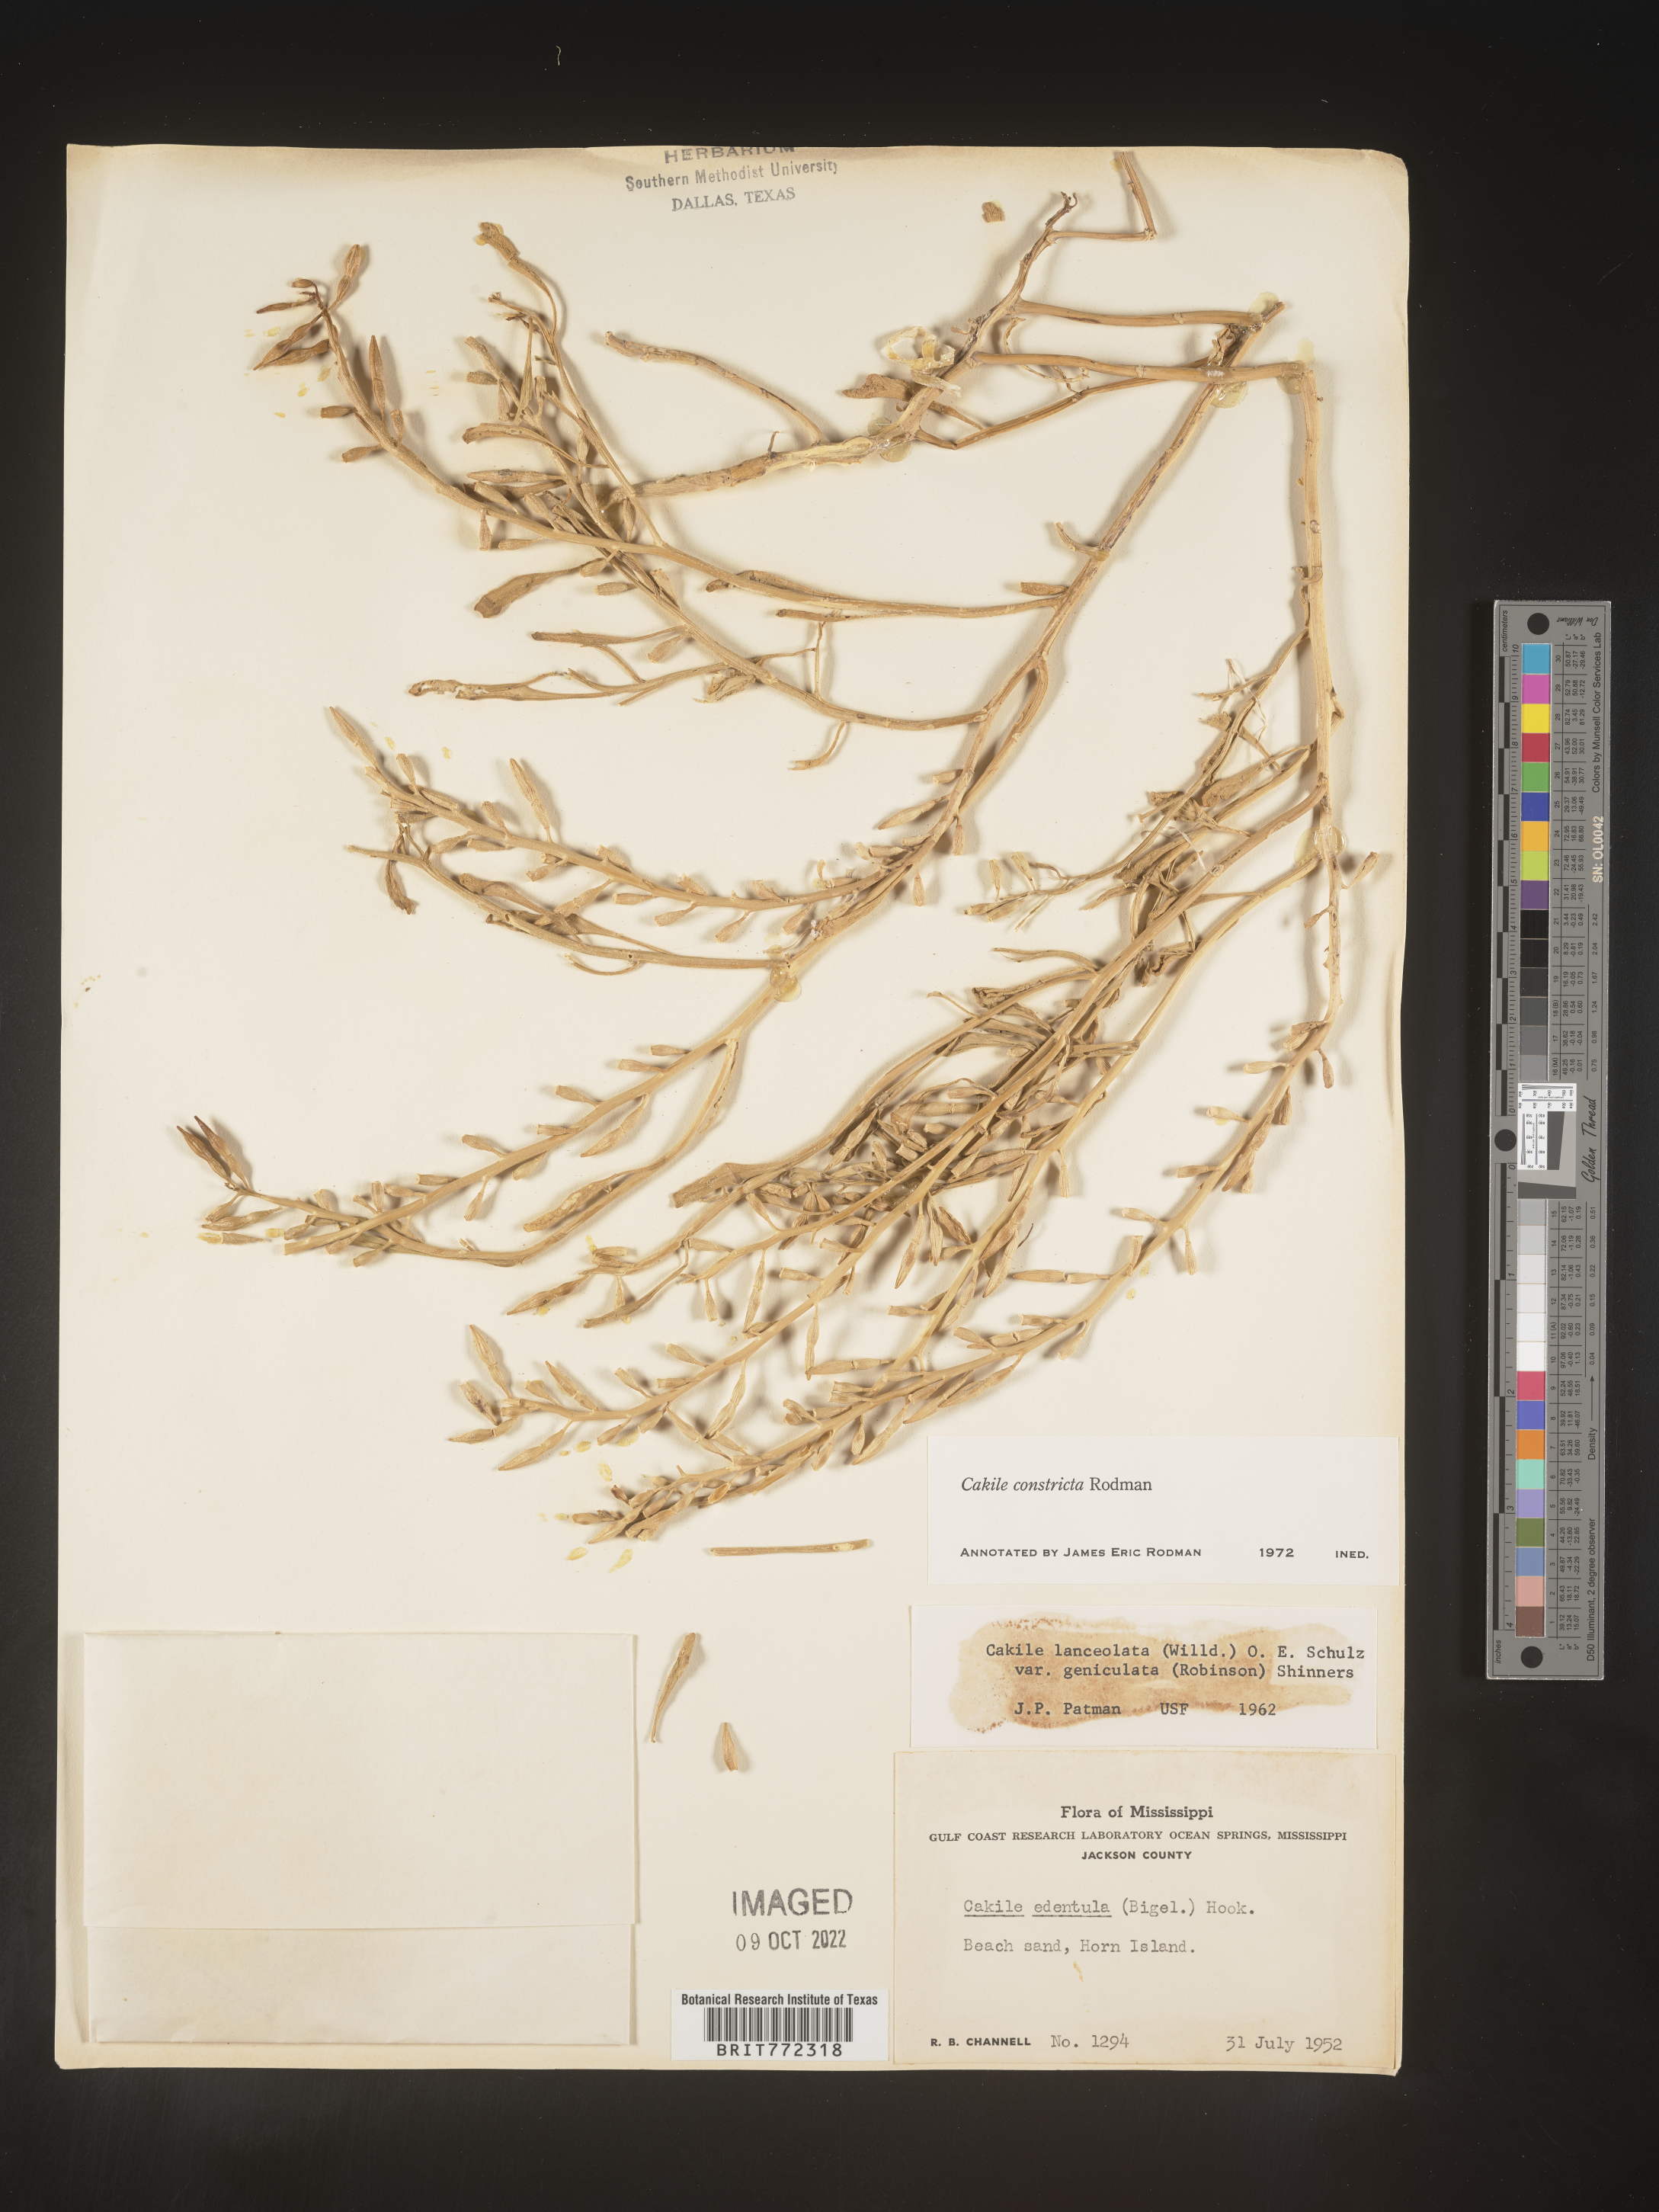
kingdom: Plantae
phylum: Tracheophyta
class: Magnoliopsida
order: Brassicales
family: Brassicaceae
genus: Cakile
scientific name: Cakile constricta
